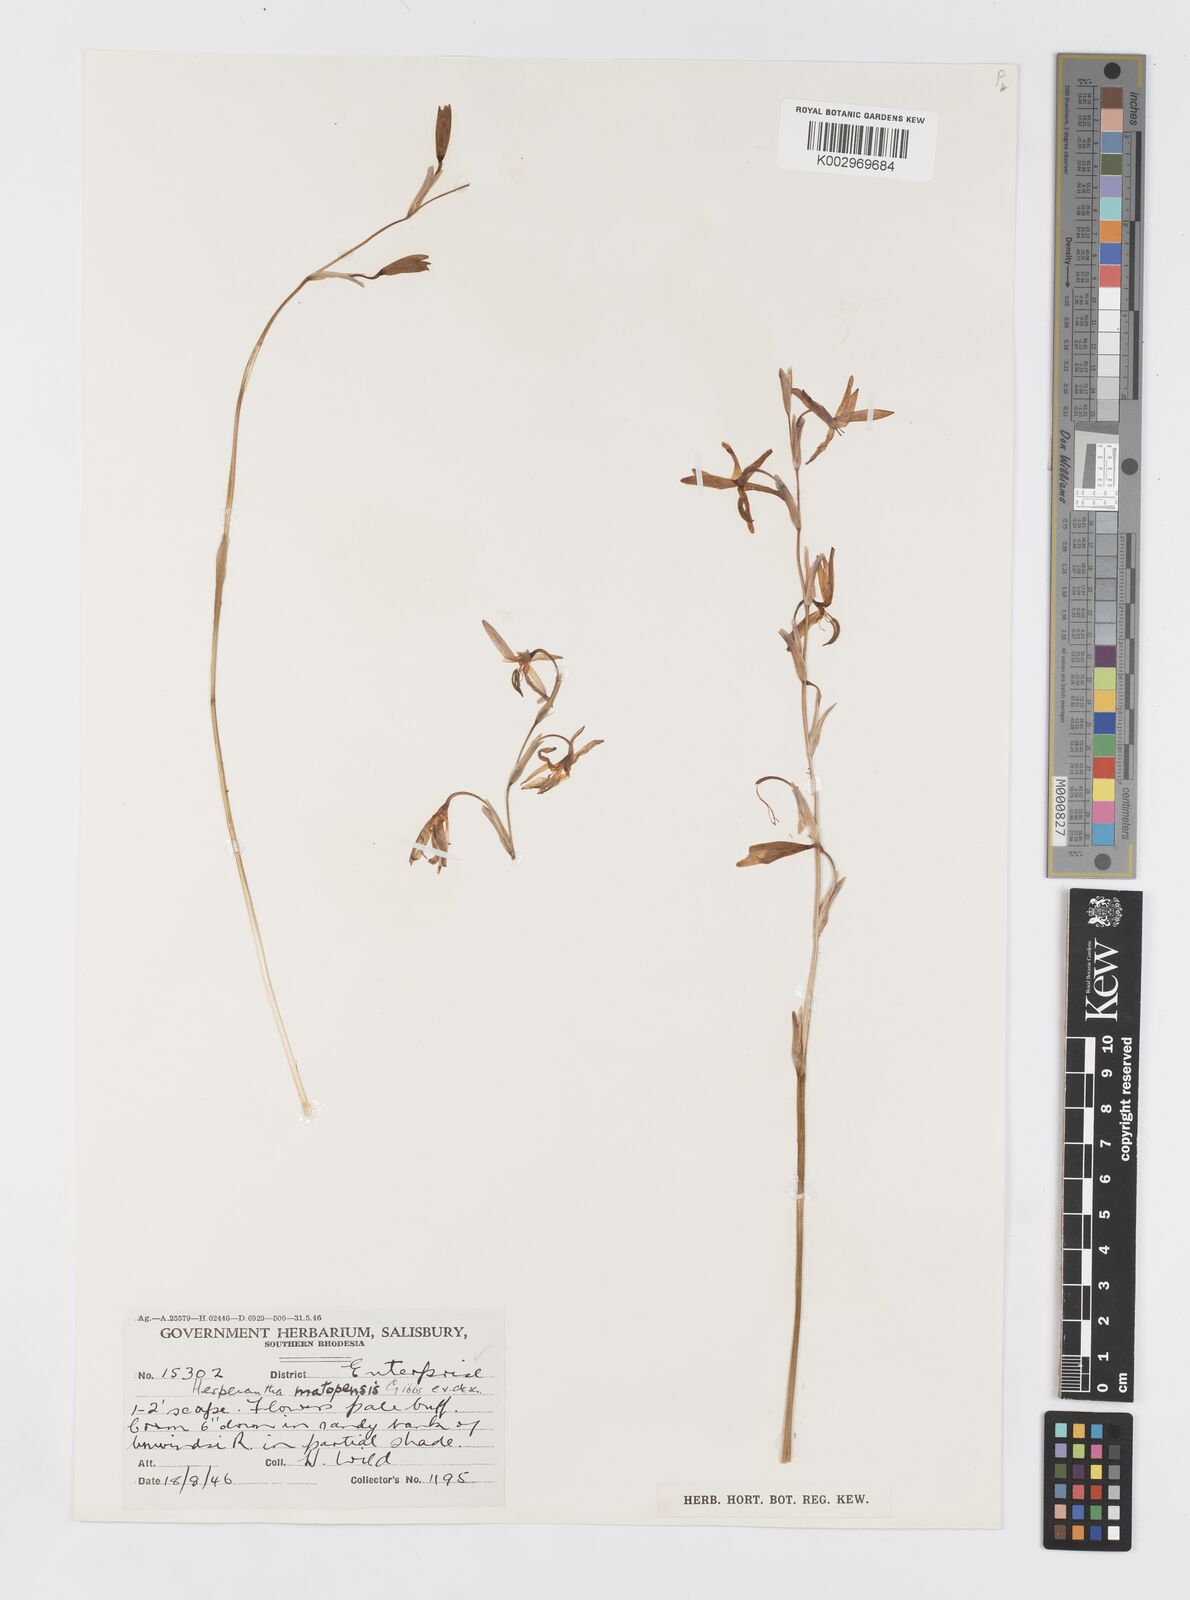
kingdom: Plantae
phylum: Tracheophyta
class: Liliopsida
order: Asparagales
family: Iridaceae
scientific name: Iridaceae
